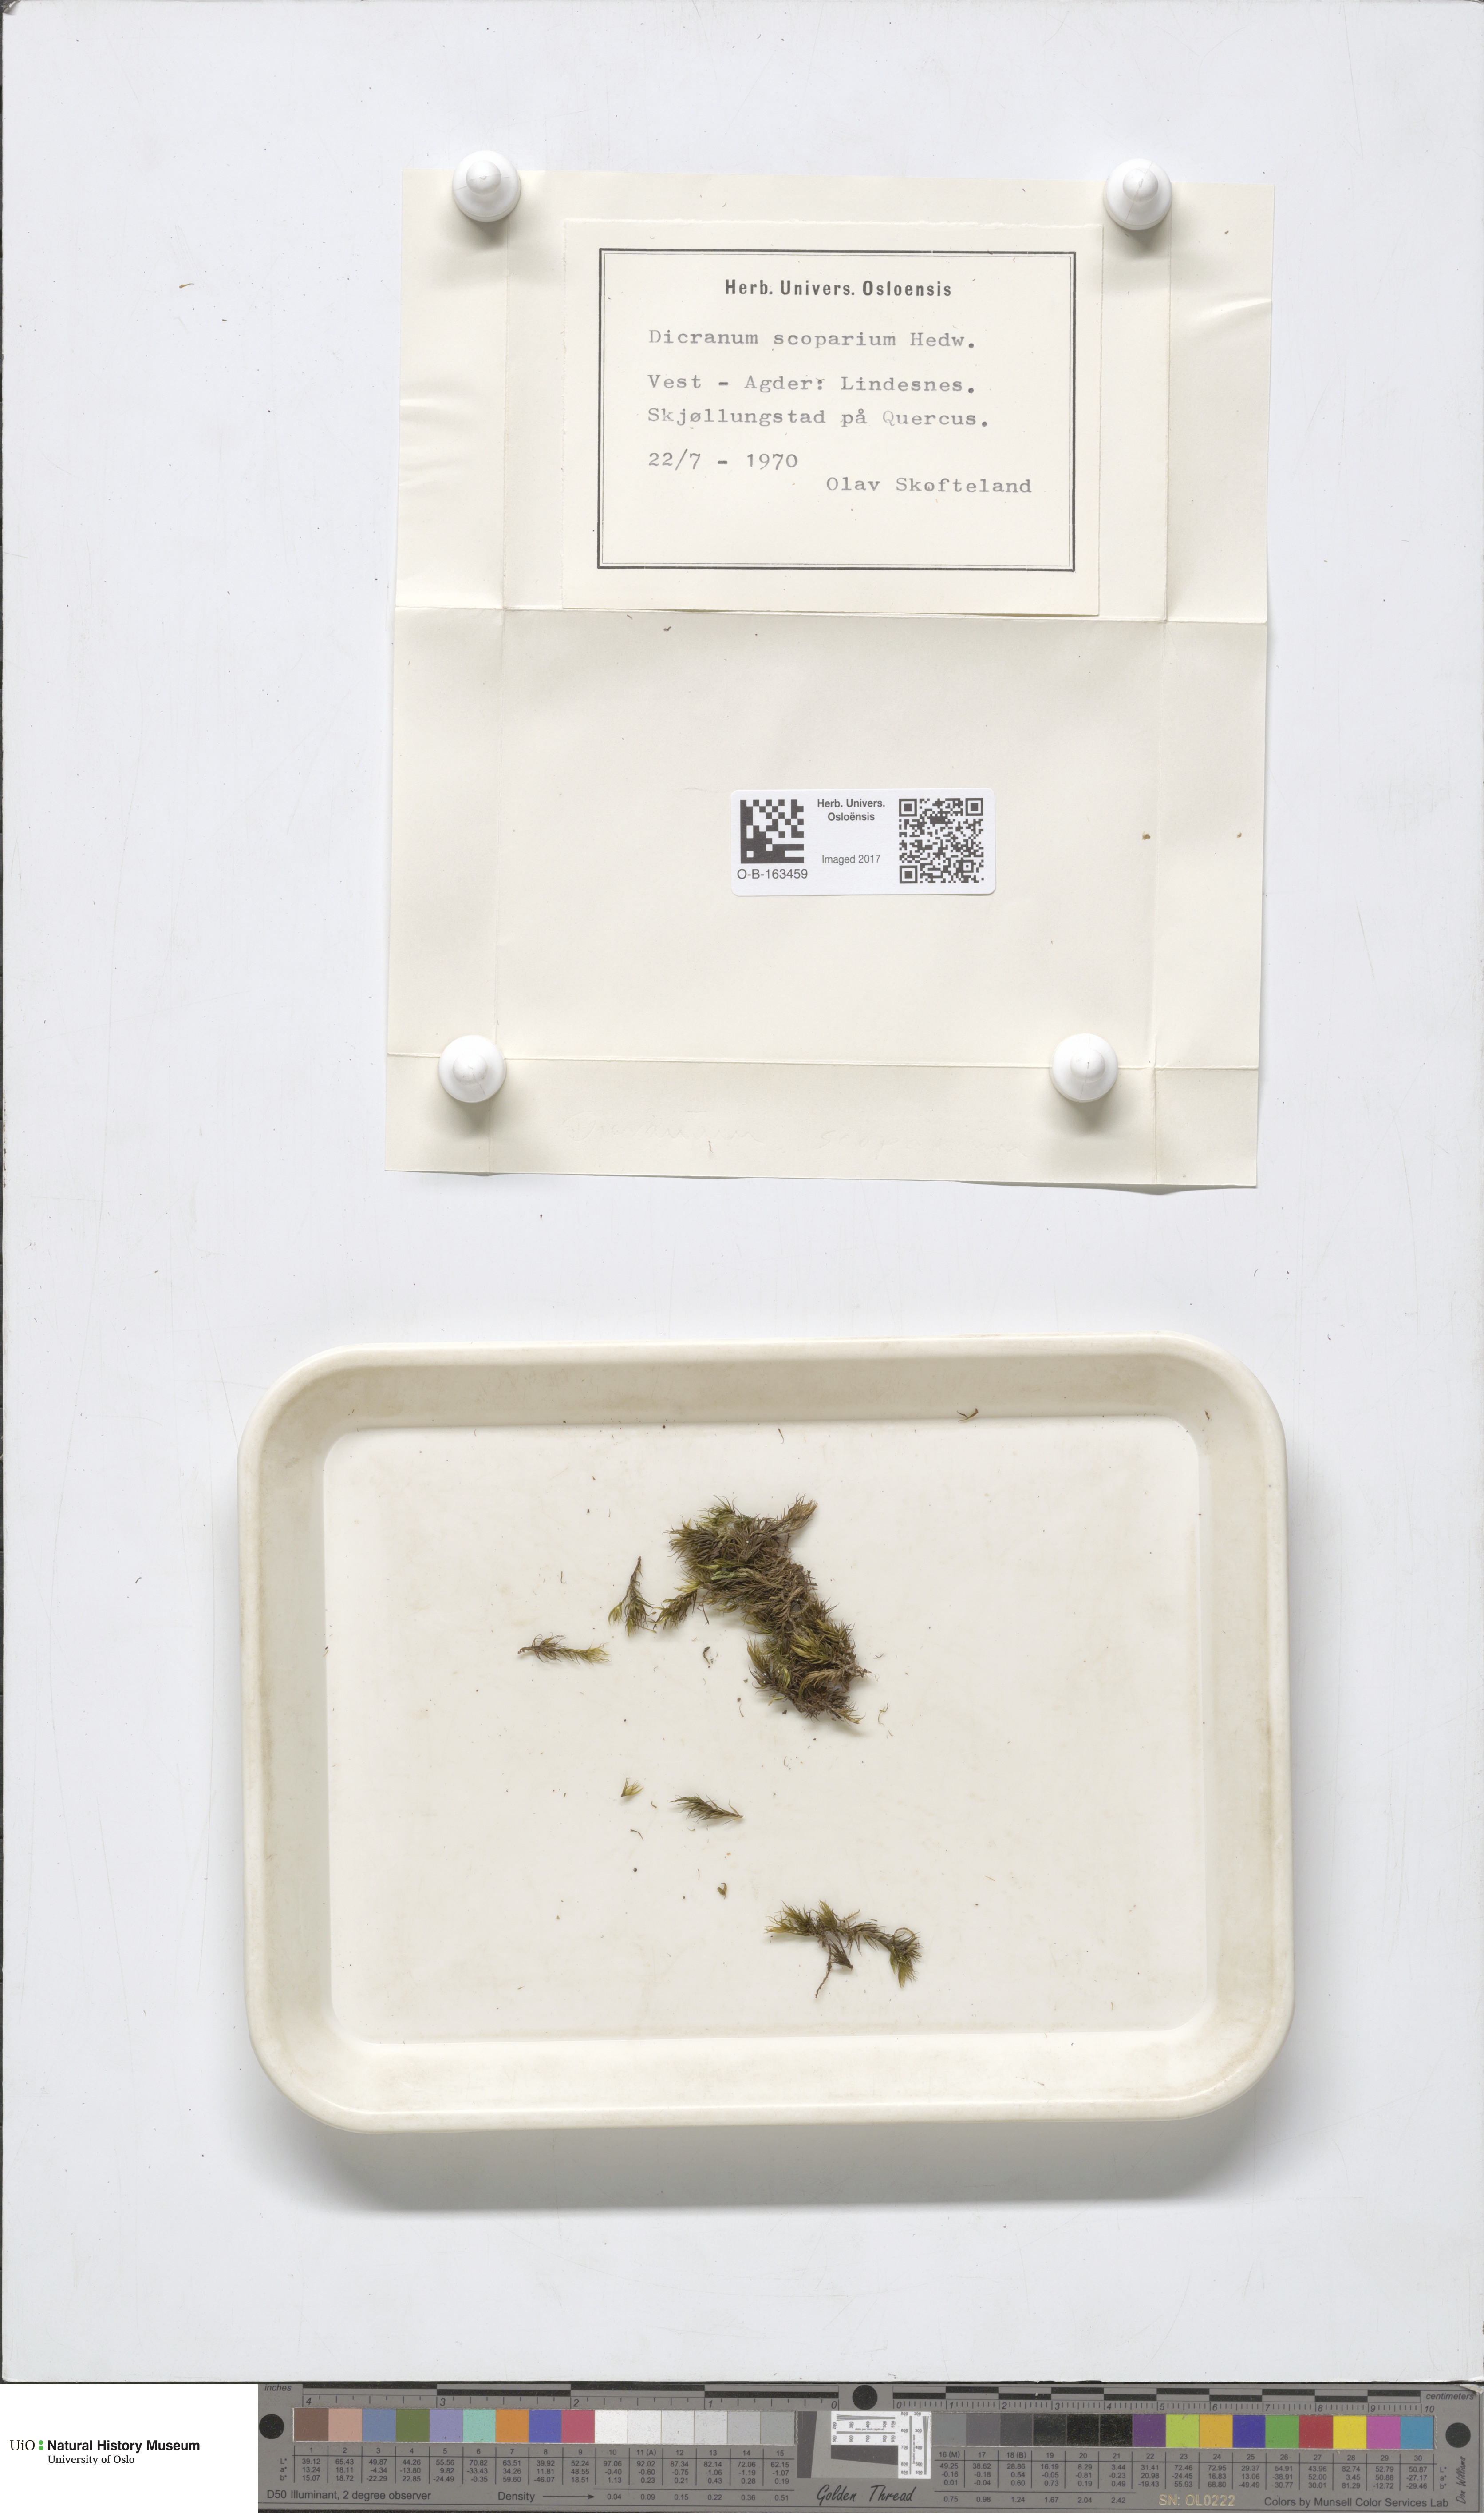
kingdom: Plantae
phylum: Bryophyta
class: Bryopsida
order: Dicranales
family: Dicranaceae
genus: Dicranum
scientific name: Dicranum scoparium
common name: Broom fork-moss
